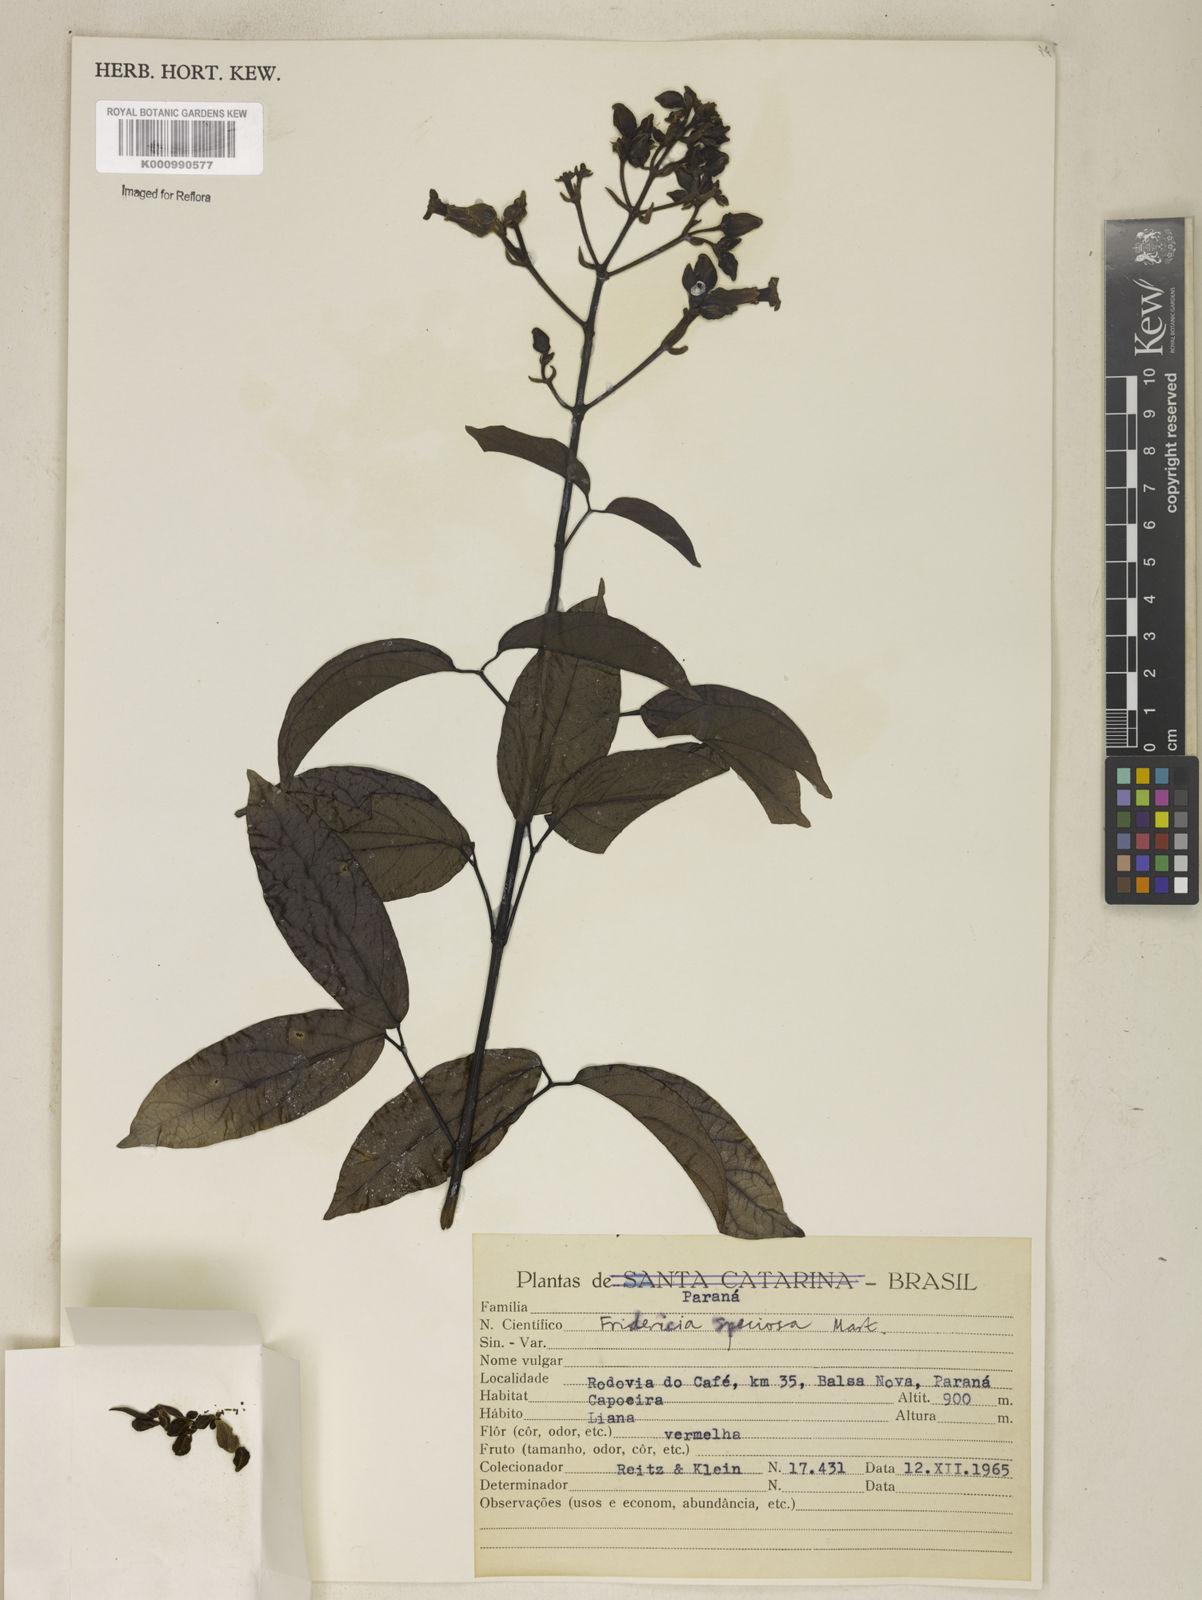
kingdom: Plantae
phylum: Tracheophyta
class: Magnoliopsida
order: Lamiales
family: Bignoniaceae
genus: Fridericia
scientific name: Fridericia speciosa
